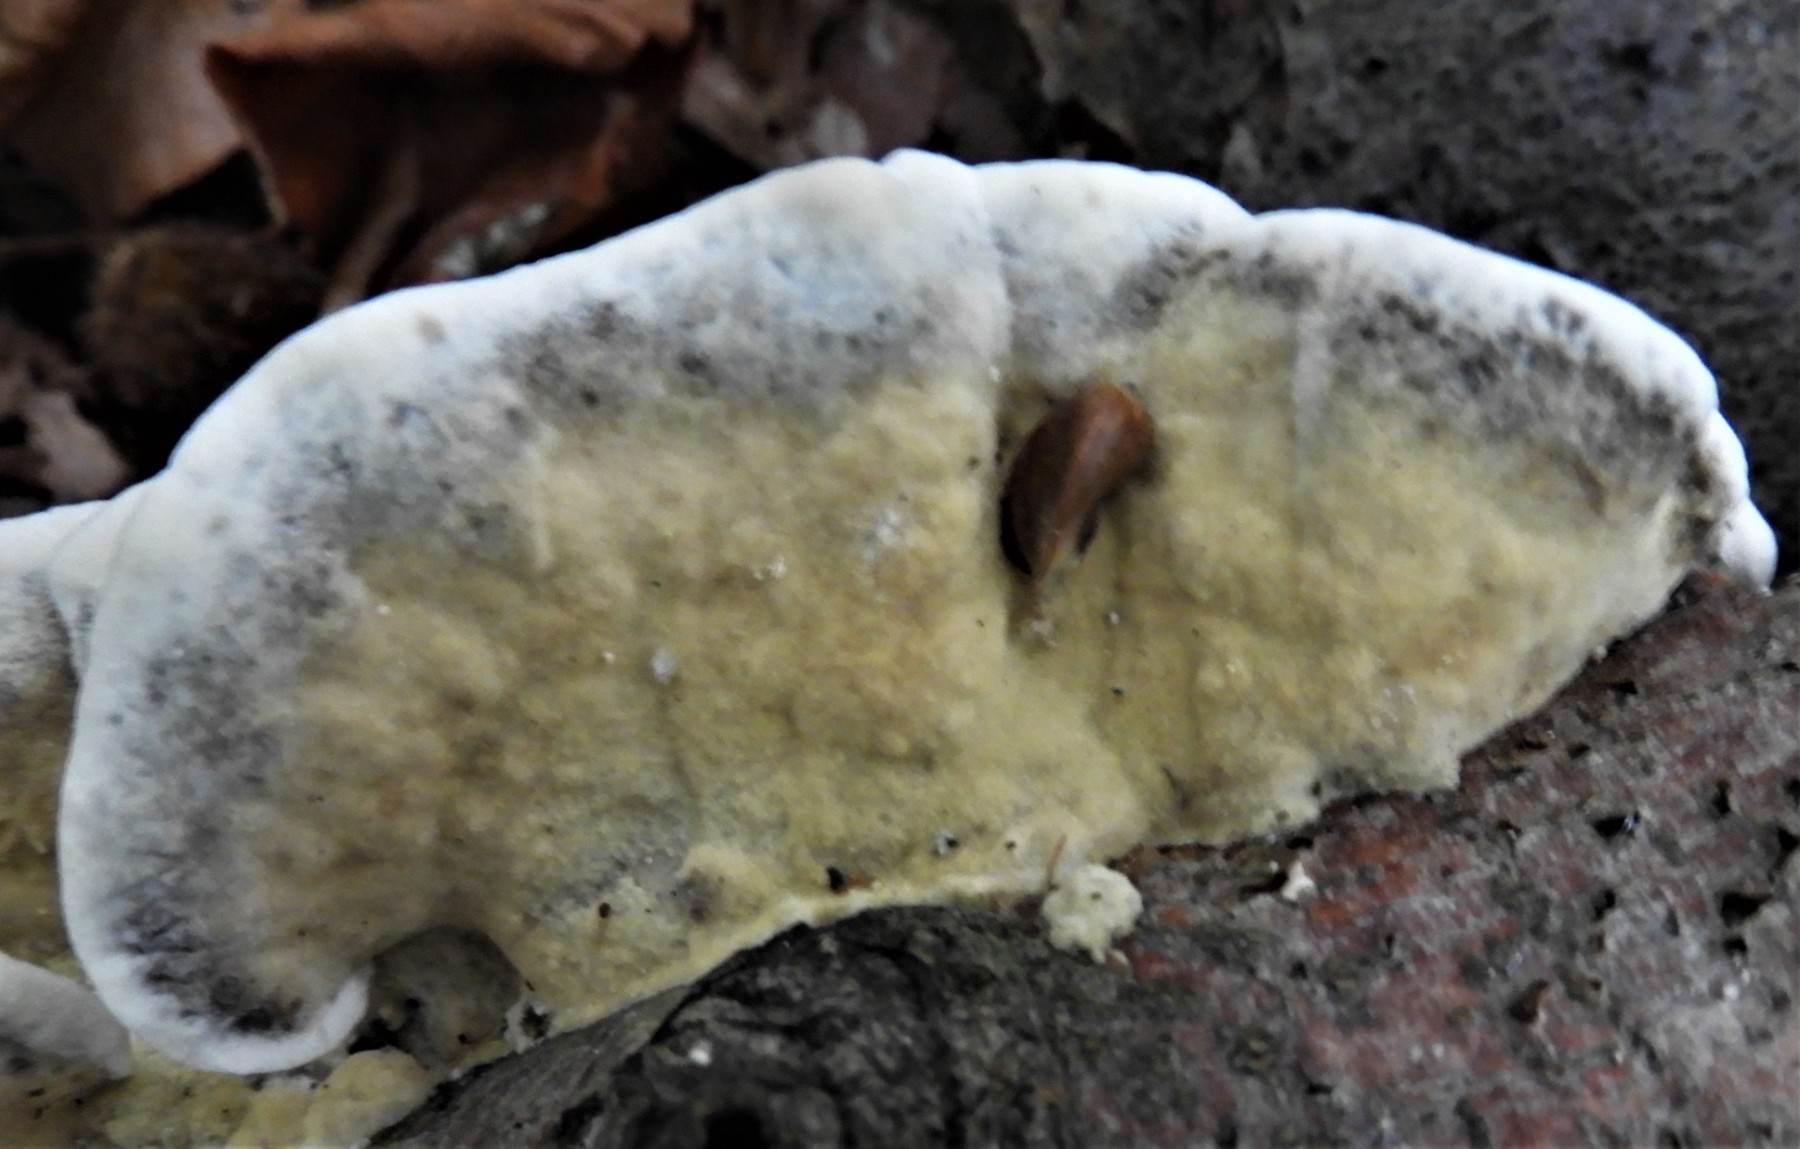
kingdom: Fungi
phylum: Basidiomycota
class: Agaricomycetes
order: Polyporales
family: Phanerochaetaceae
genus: Bjerkandera
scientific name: Bjerkandera adusta
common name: sveden sodporesvamp
